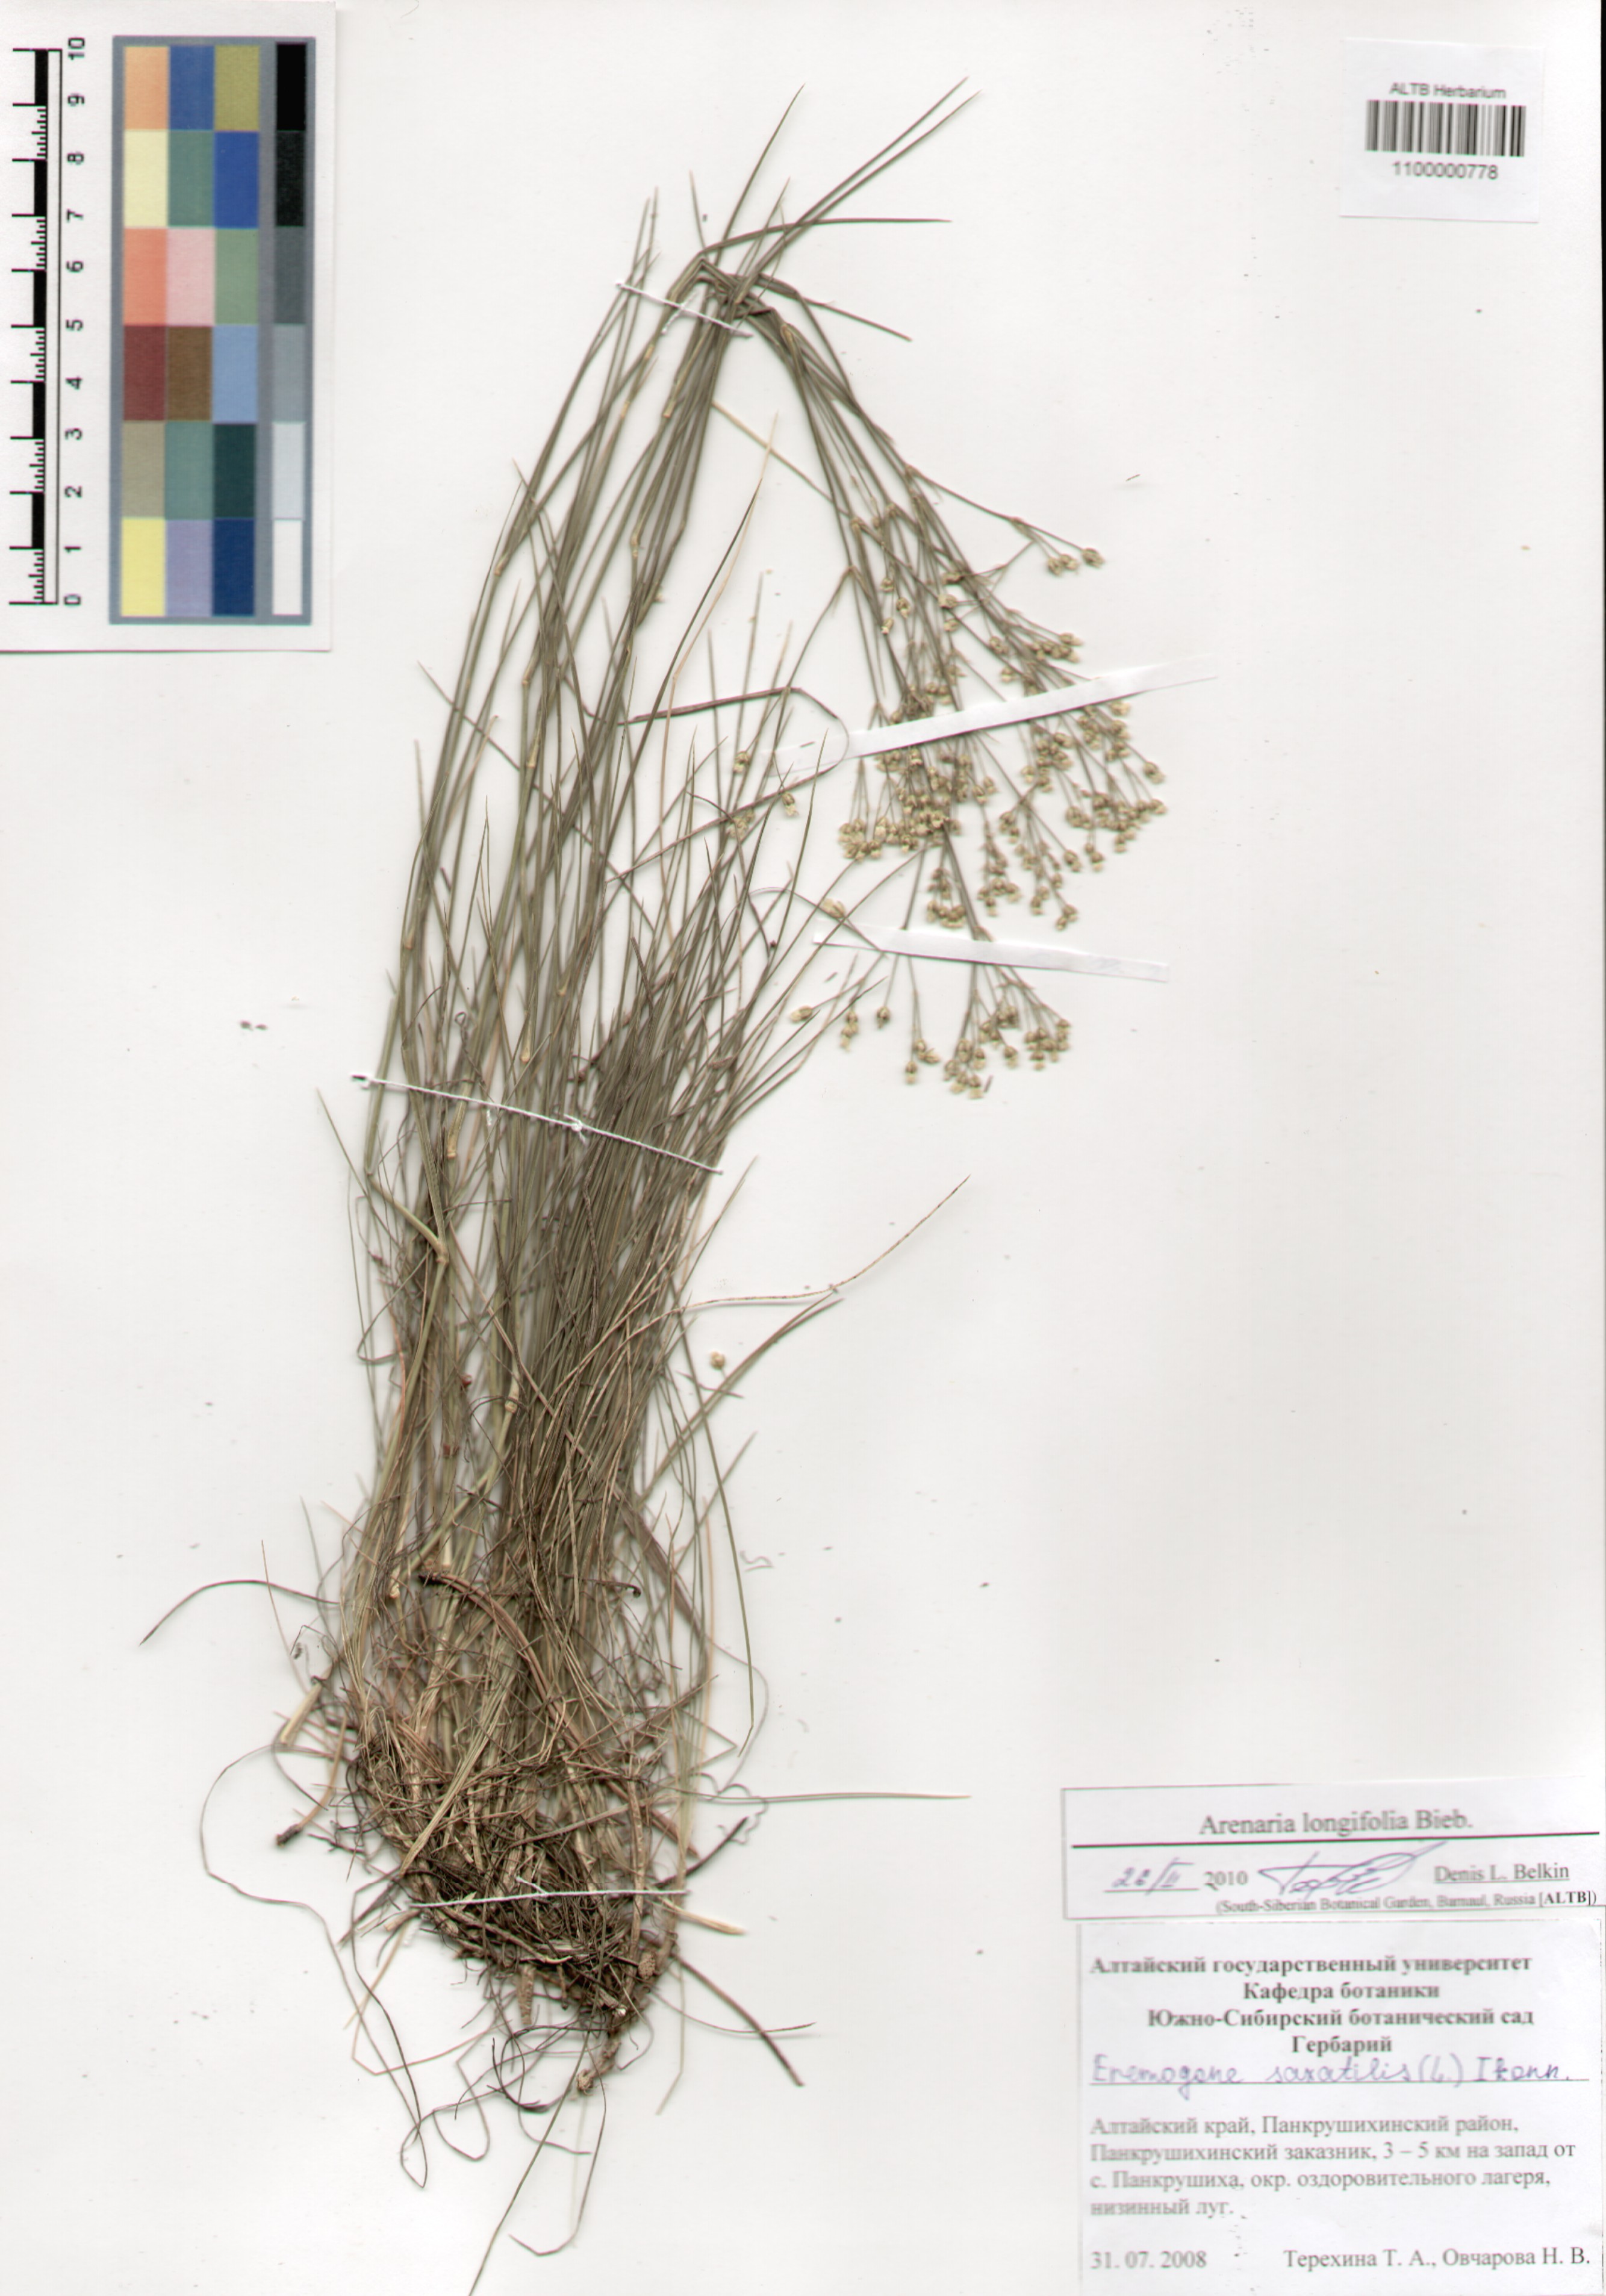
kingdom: Plantae
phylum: Tracheophyta
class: Magnoliopsida
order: Caryophyllales
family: Caryophyllaceae
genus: Eremogone
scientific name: Eremogone longifolia
